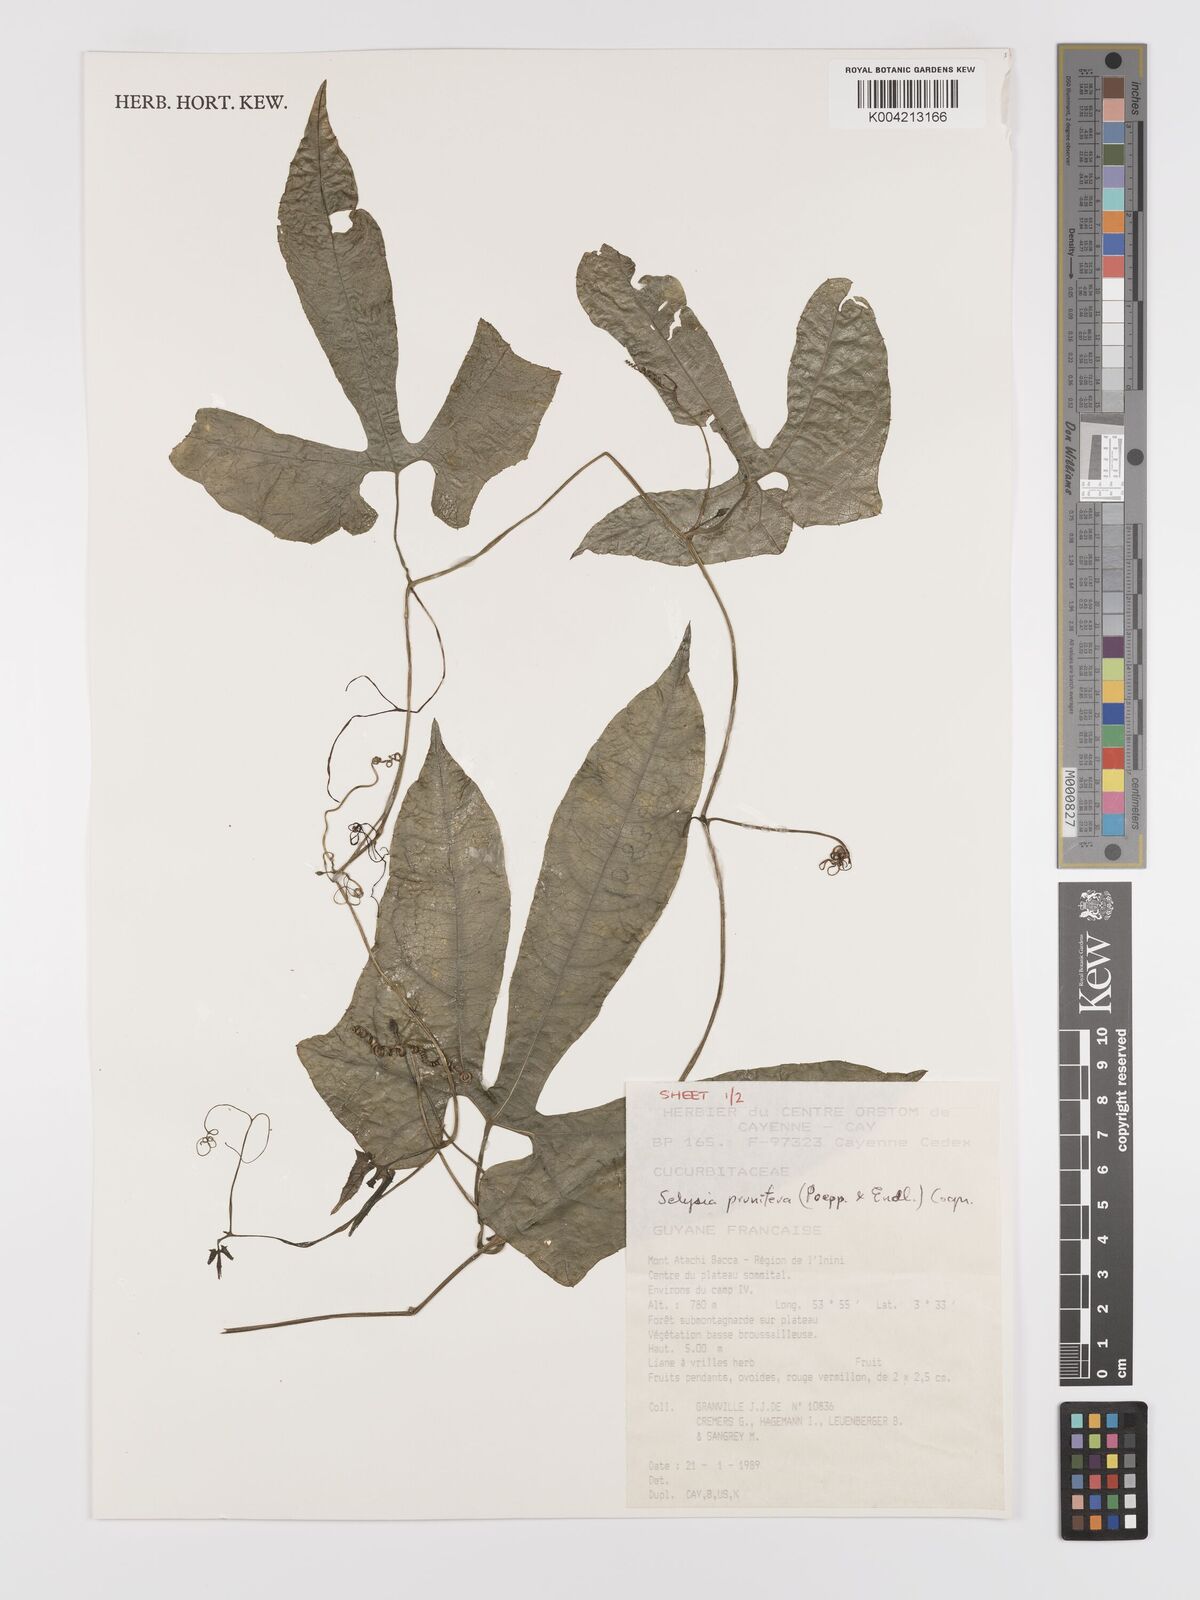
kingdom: Plantae
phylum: Tracheophyta
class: Magnoliopsida
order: Cucurbitales
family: Cucurbitaceae
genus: Cayaponia
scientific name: Cayaponia prunifera
